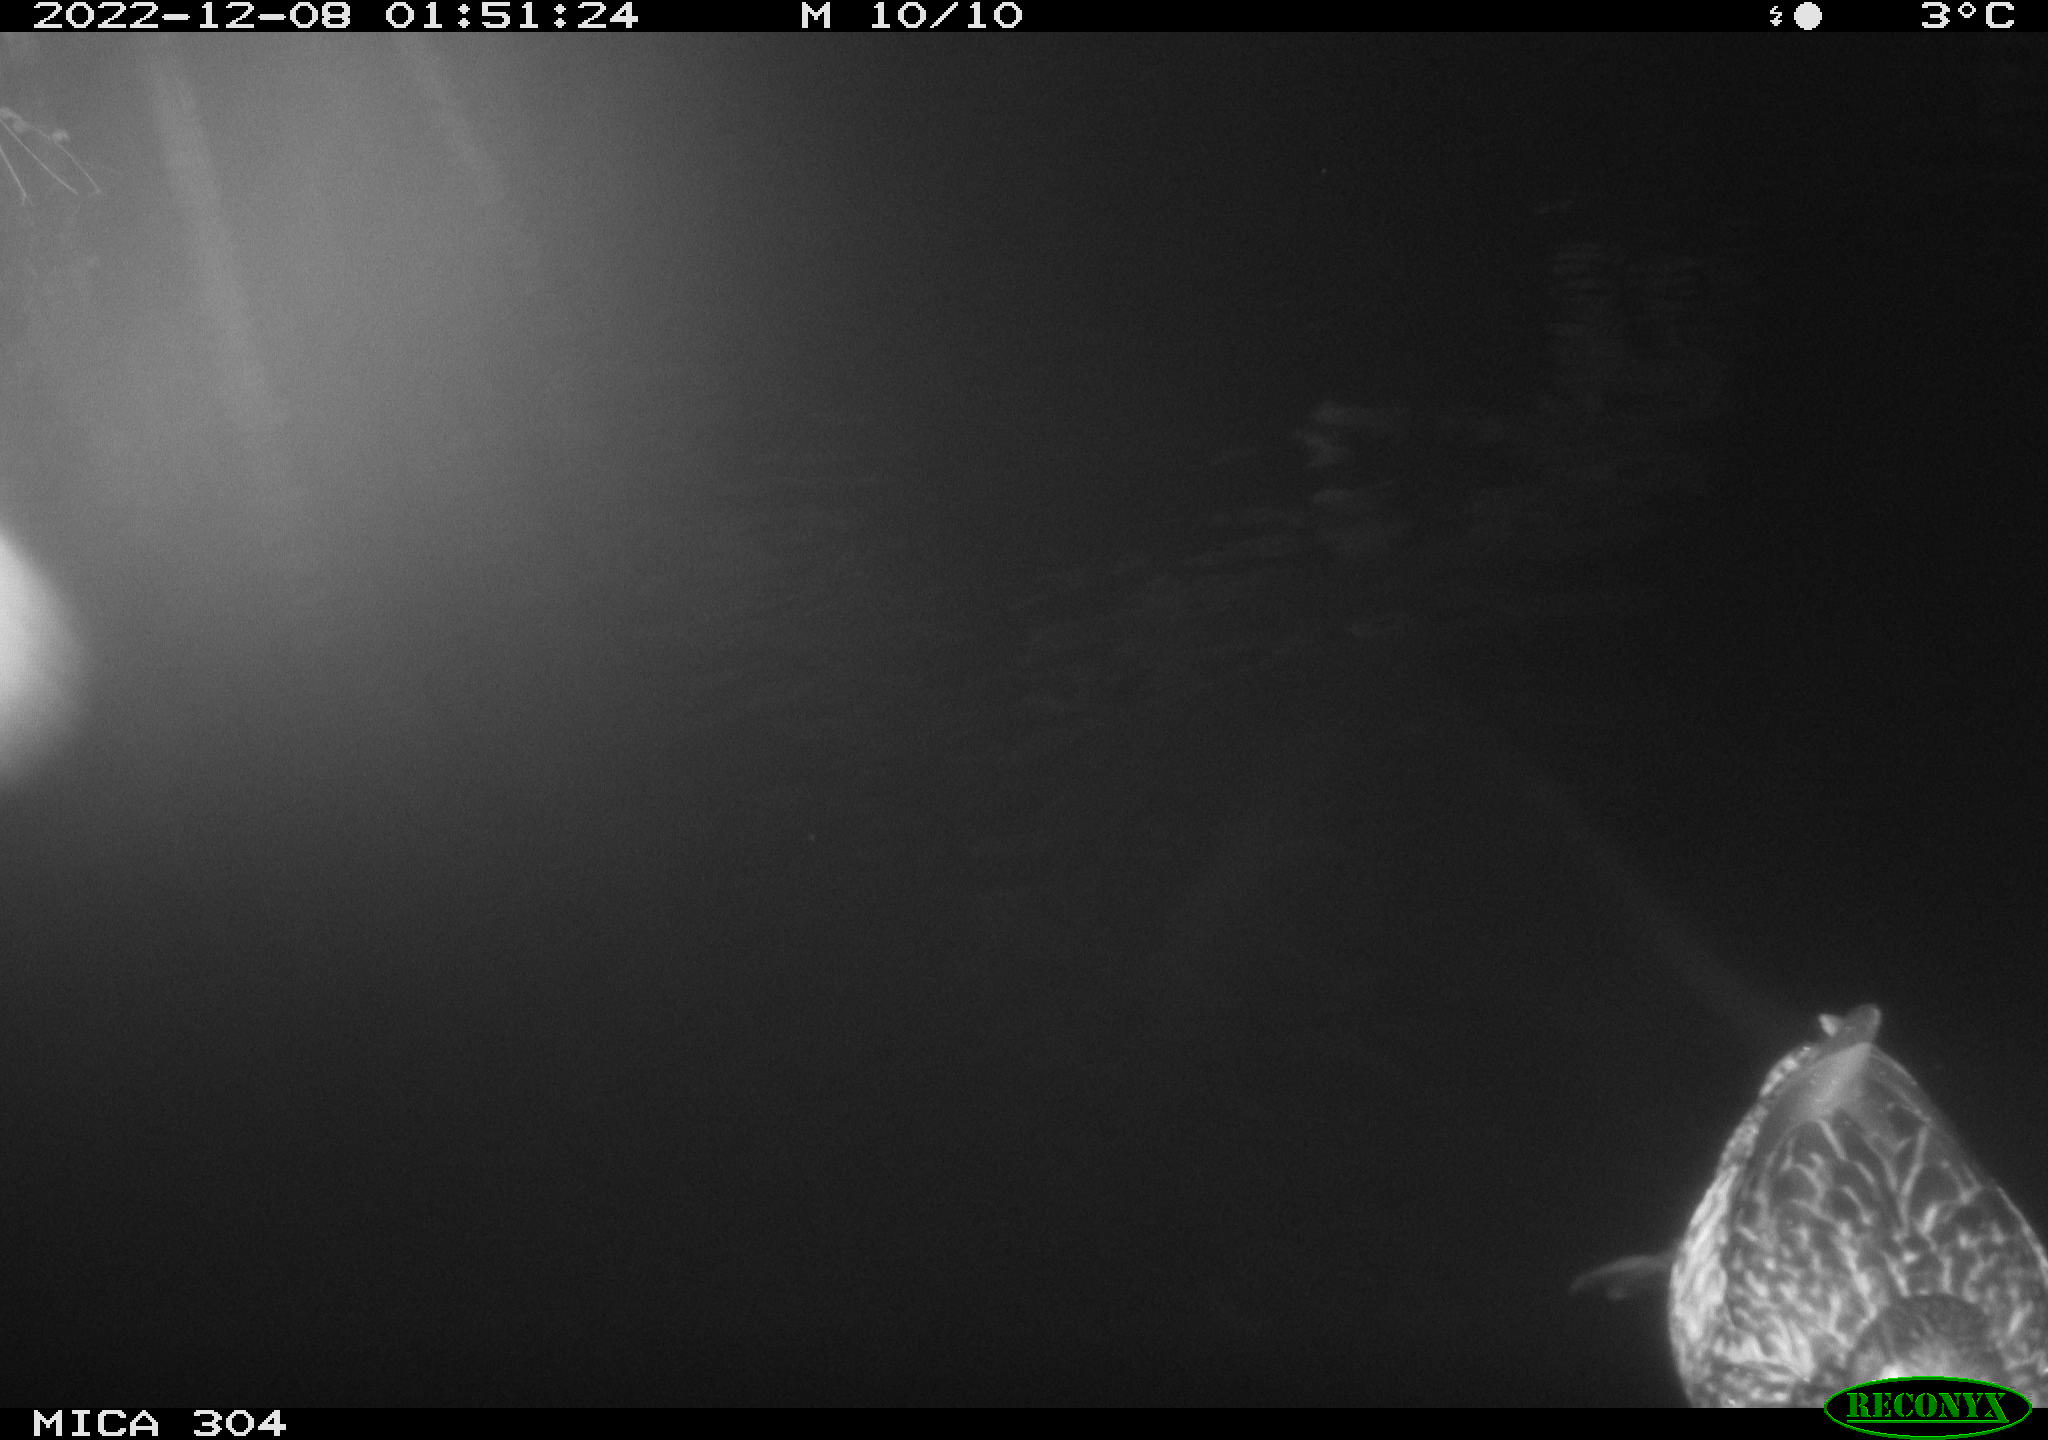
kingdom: Animalia
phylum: Chordata
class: Aves
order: Anseriformes
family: Anatidae
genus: Anas
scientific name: Anas
